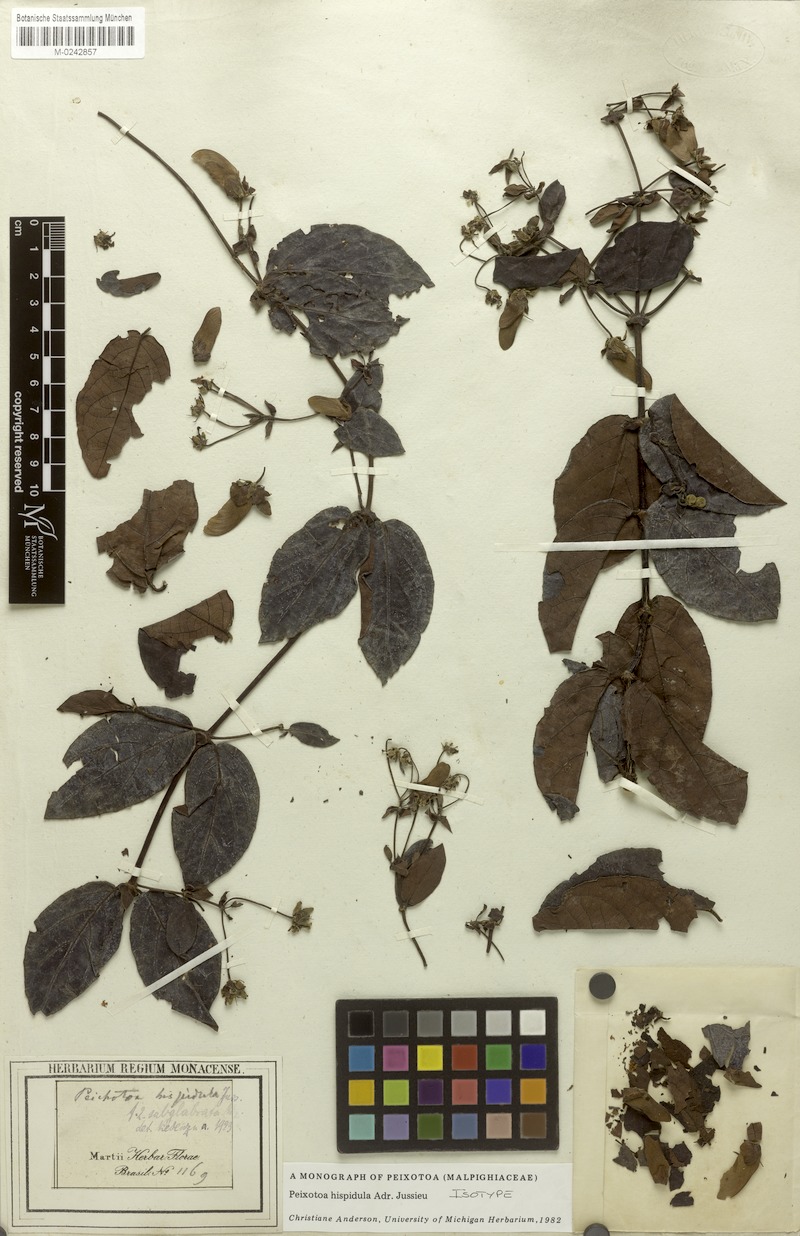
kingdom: Plantae
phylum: Tracheophyta
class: Magnoliopsida
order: Malpighiales
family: Malpighiaceae
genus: Peixotoa
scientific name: Peixotoa hispidula
